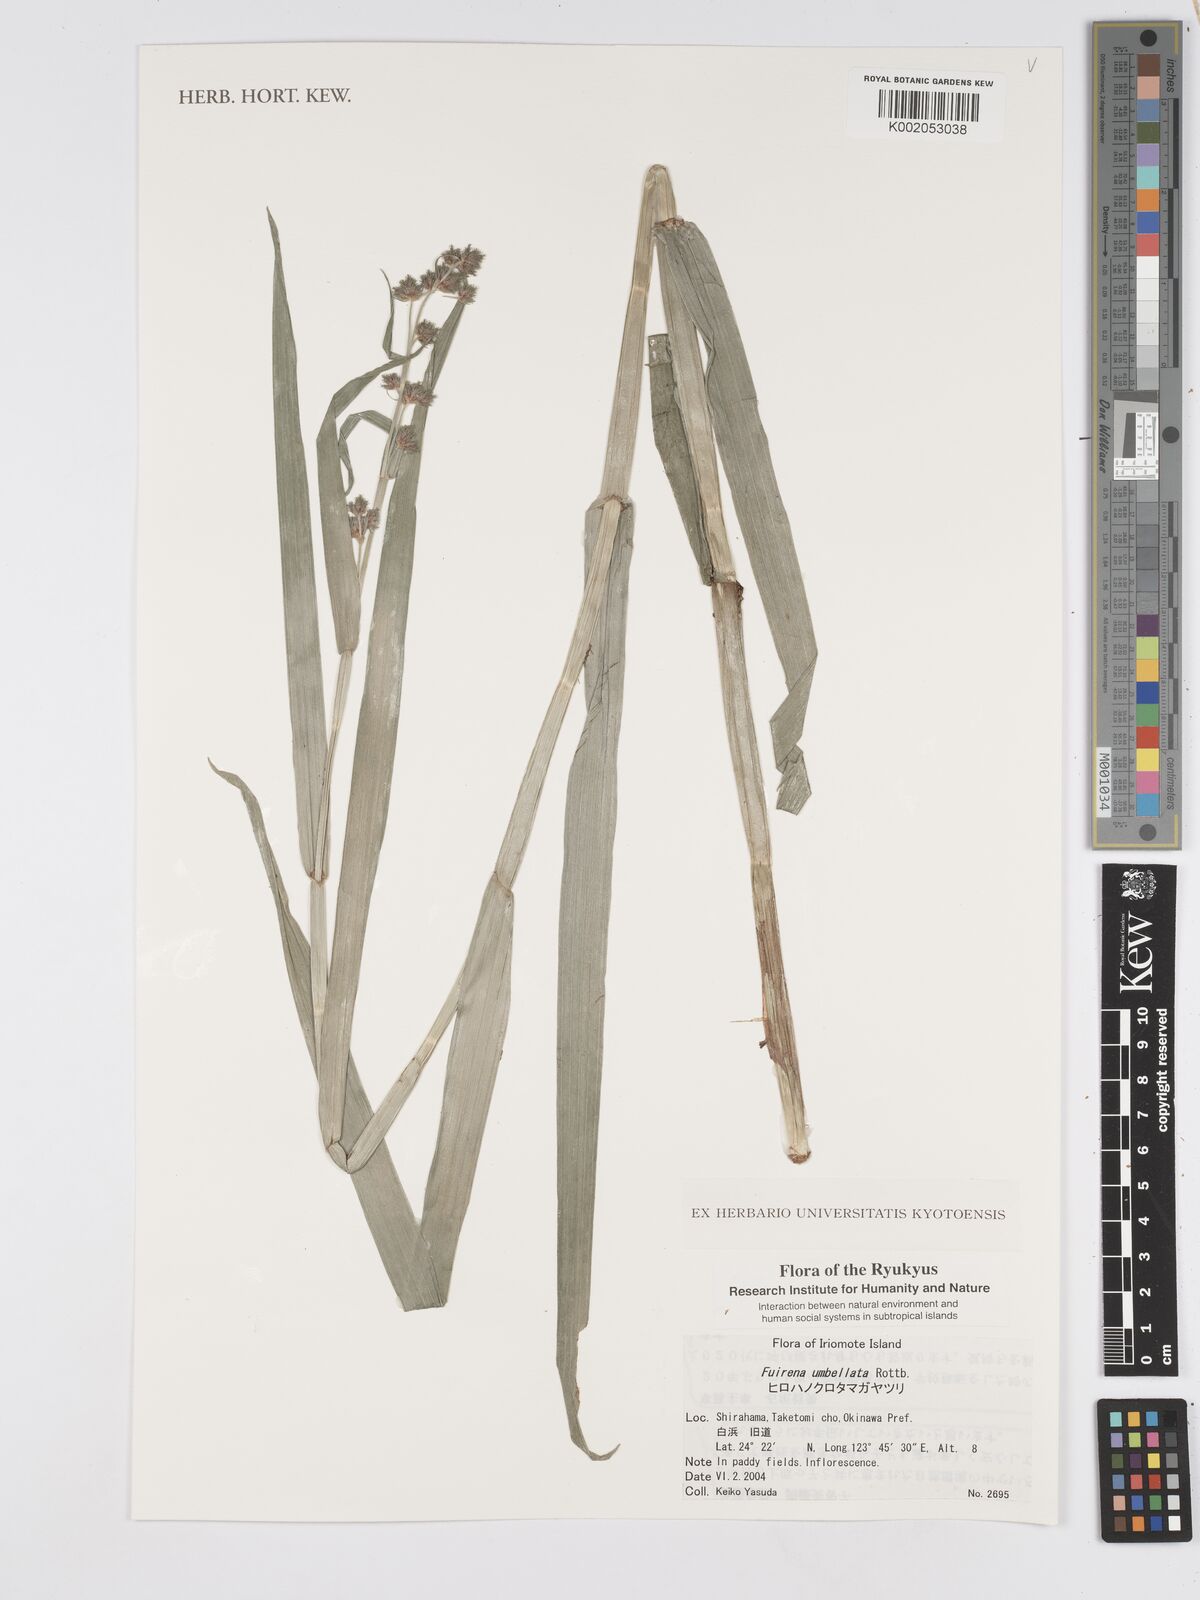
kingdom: Plantae
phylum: Tracheophyta
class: Liliopsida
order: Poales
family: Cyperaceae
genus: Fuirena
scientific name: Fuirena umbellata
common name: Yefen
